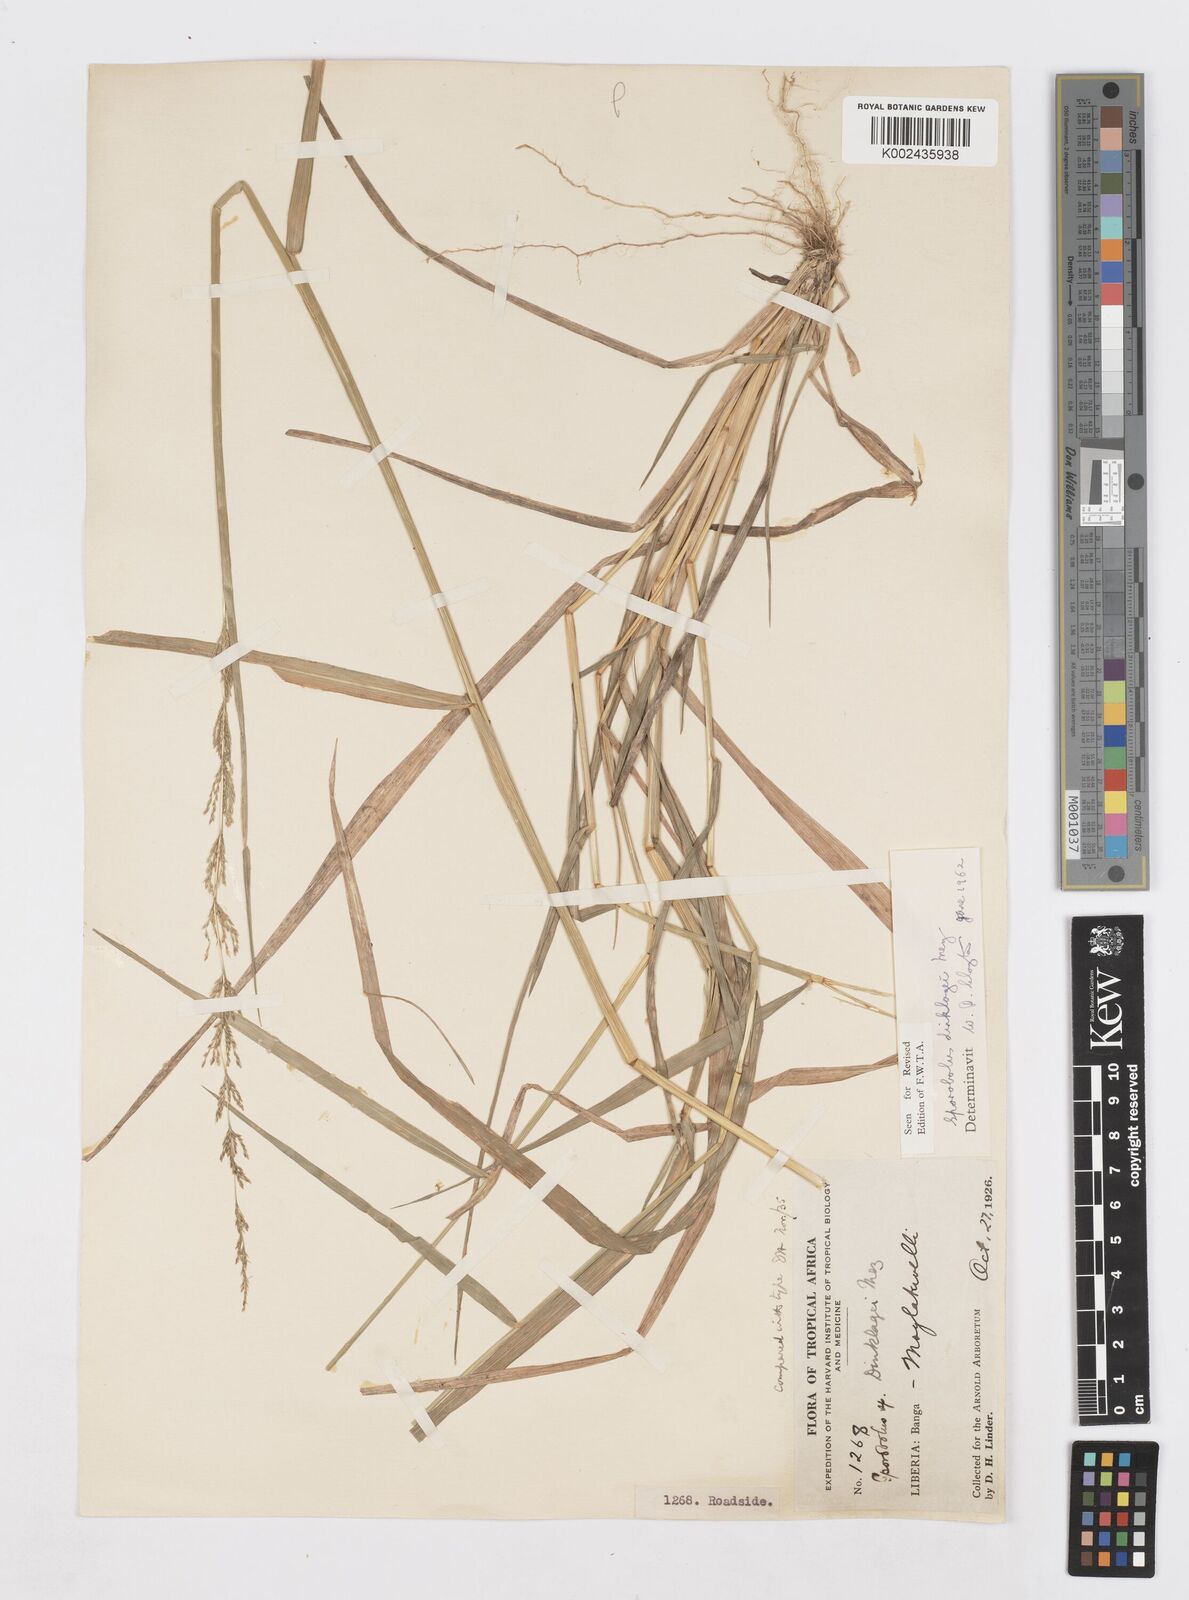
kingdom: Plantae
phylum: Tracheophyta
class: Liliopsida
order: Poales
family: Poaceae
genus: Sporobolus
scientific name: Sporobolus dinklagei
